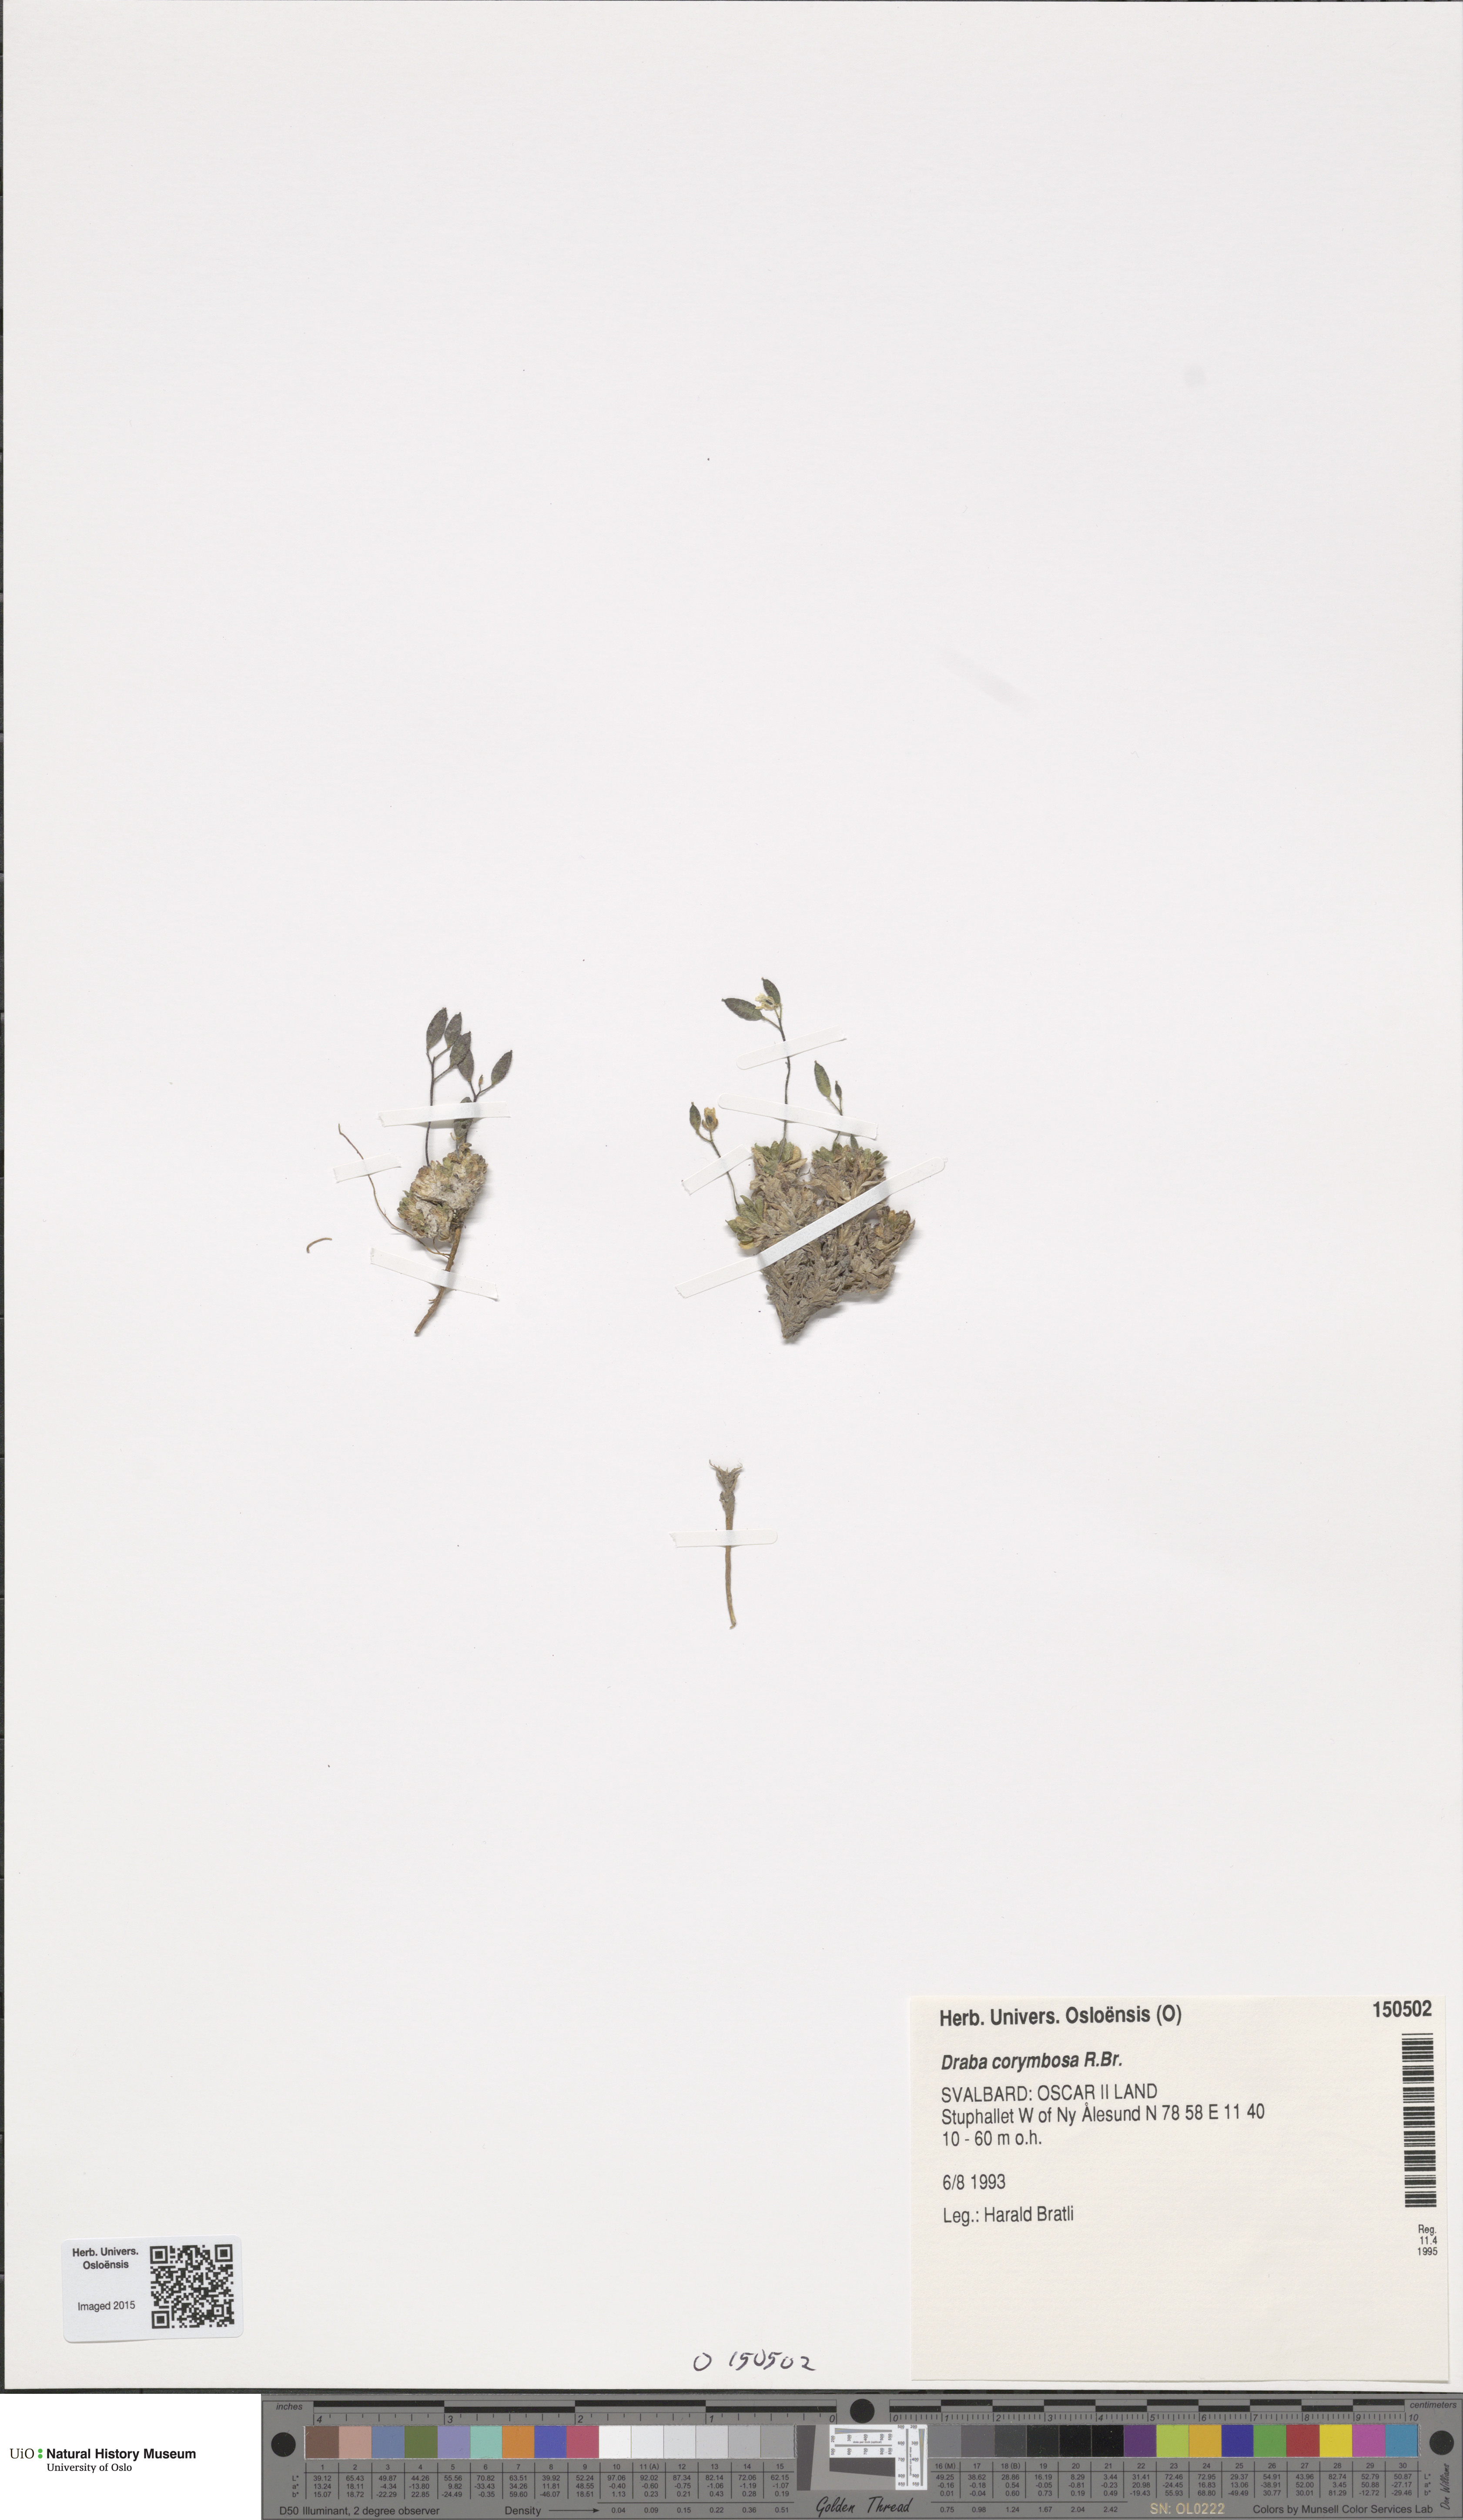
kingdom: Plantae
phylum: Tracheophyta
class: Magnoliopsida
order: Brassicales
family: Brassicaceae
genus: Draba
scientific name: Draba corymbosa
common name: Cushion whitlow-grass
